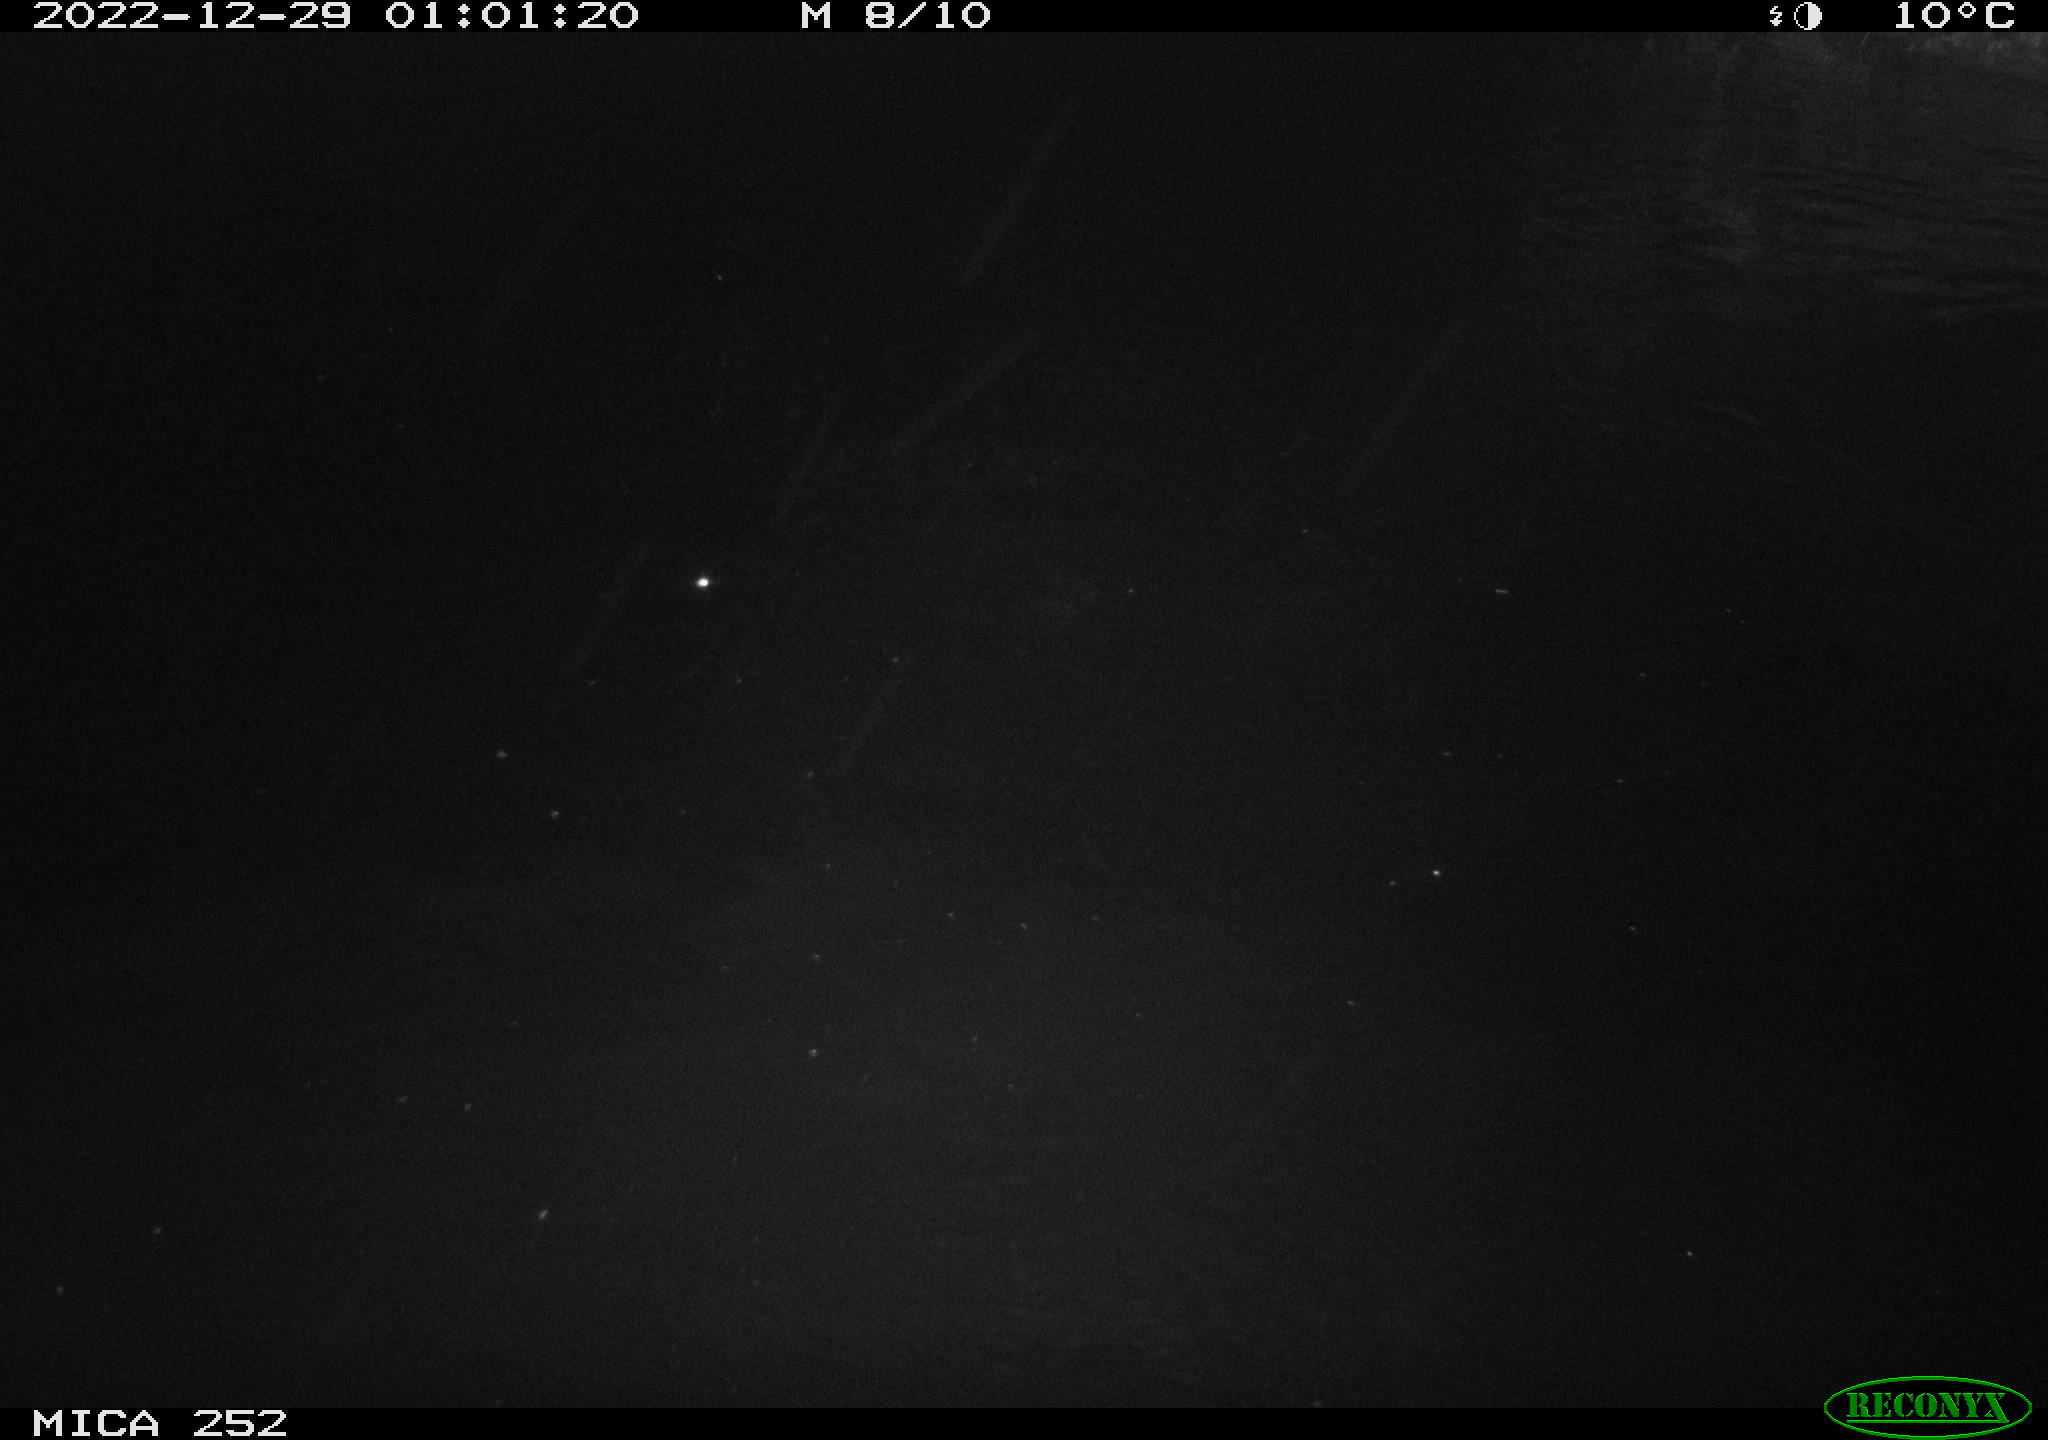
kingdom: Animalia
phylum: Chordata
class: Mammalia
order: Rodentia
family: Castoridae
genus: Castor
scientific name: Castor fiber
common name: Eurasian beaver
